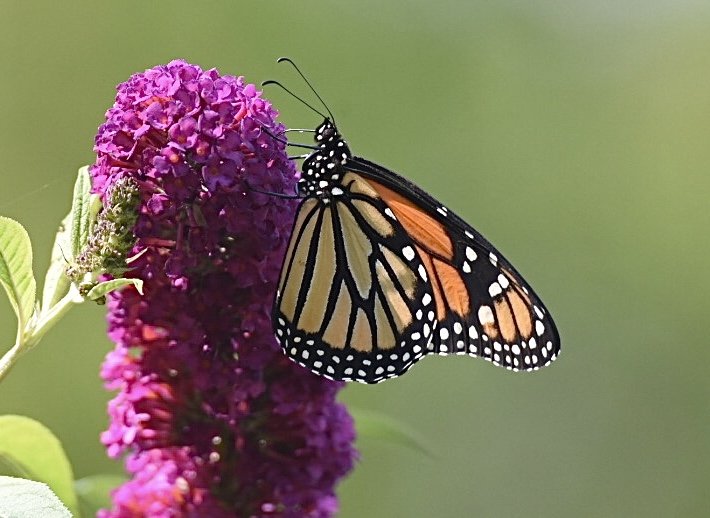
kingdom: Animalia
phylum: Arthropoda
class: Insecta
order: Lepidoptera
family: Nymphalidae
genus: Danaus
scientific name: Danaus plexippus
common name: Monarch
